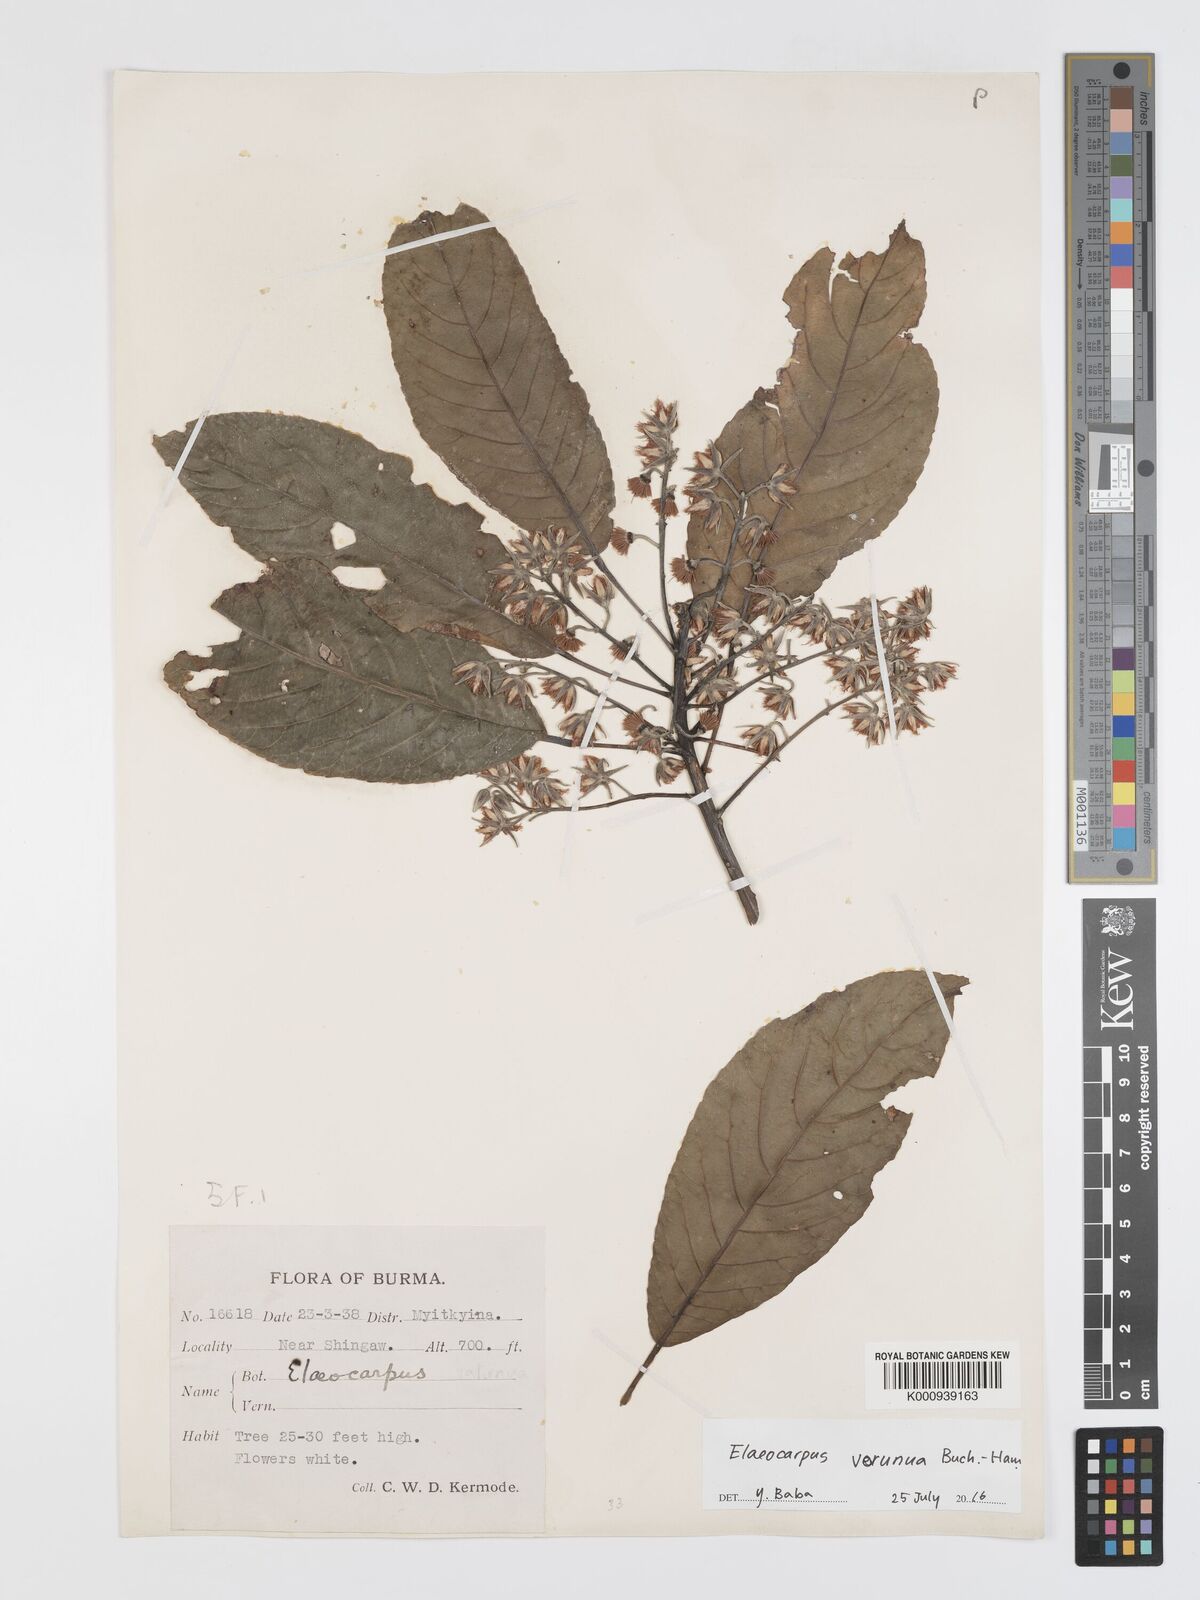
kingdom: Plantae
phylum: Tracheophyta
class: Magnoliopsida
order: Oxalidales
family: Elaeocarpaceae
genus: Elaeocarpus
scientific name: Elaeocarpus
